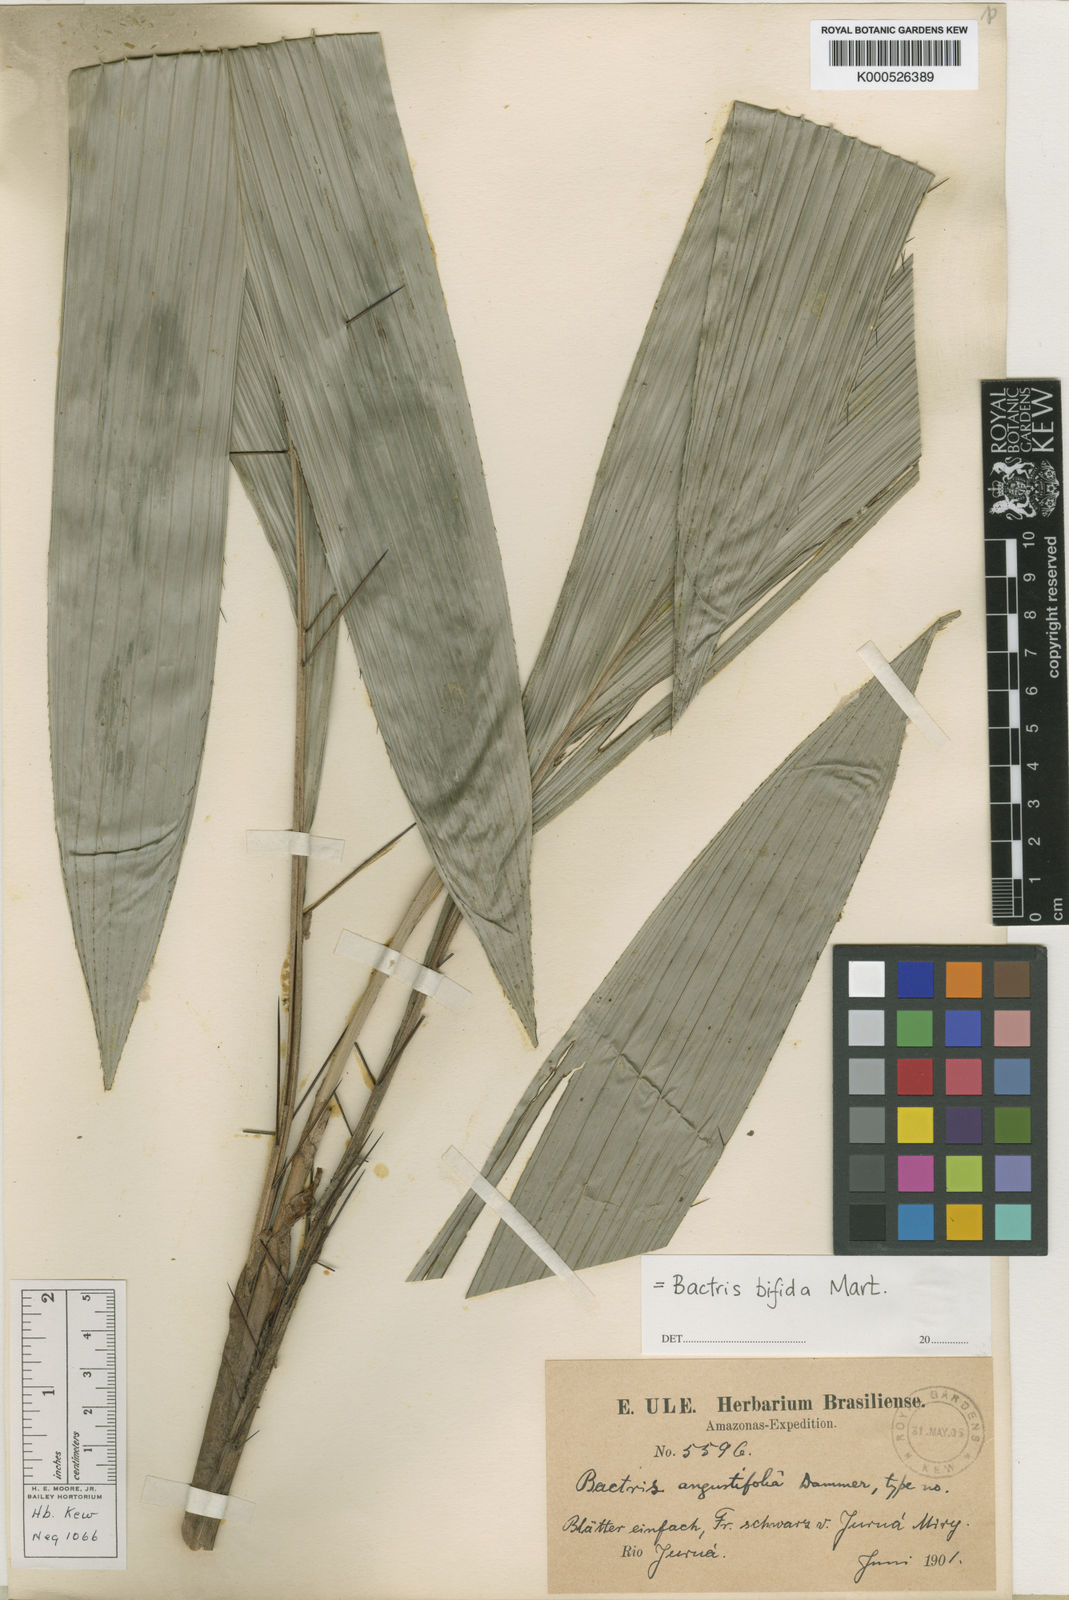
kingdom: Plantae
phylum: Tracheophyta
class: Liliopsida
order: Arecales
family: Arecaceae
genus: Bactris
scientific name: Bactris bifida
